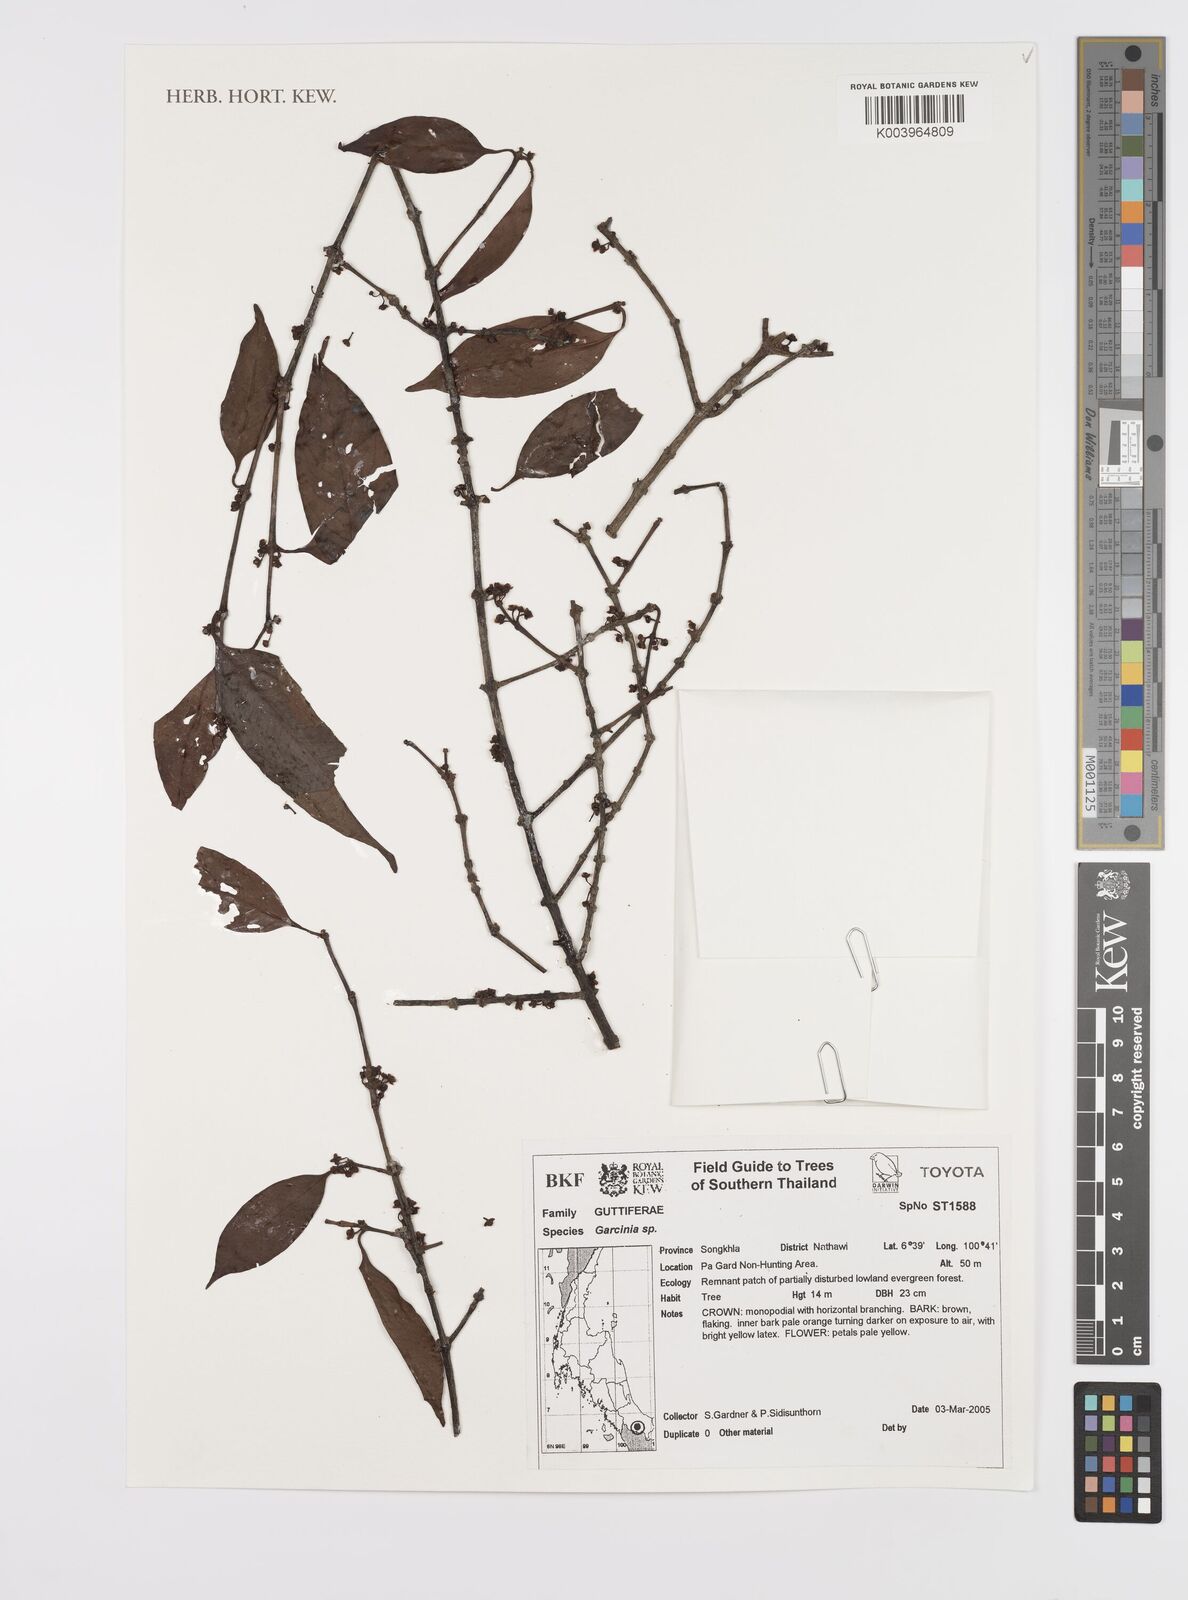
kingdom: Plantae
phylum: Tracheophyta
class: Magnoliopsida
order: Malpighiales
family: Clusiaceae
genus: Garcinia
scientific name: Garcinia
